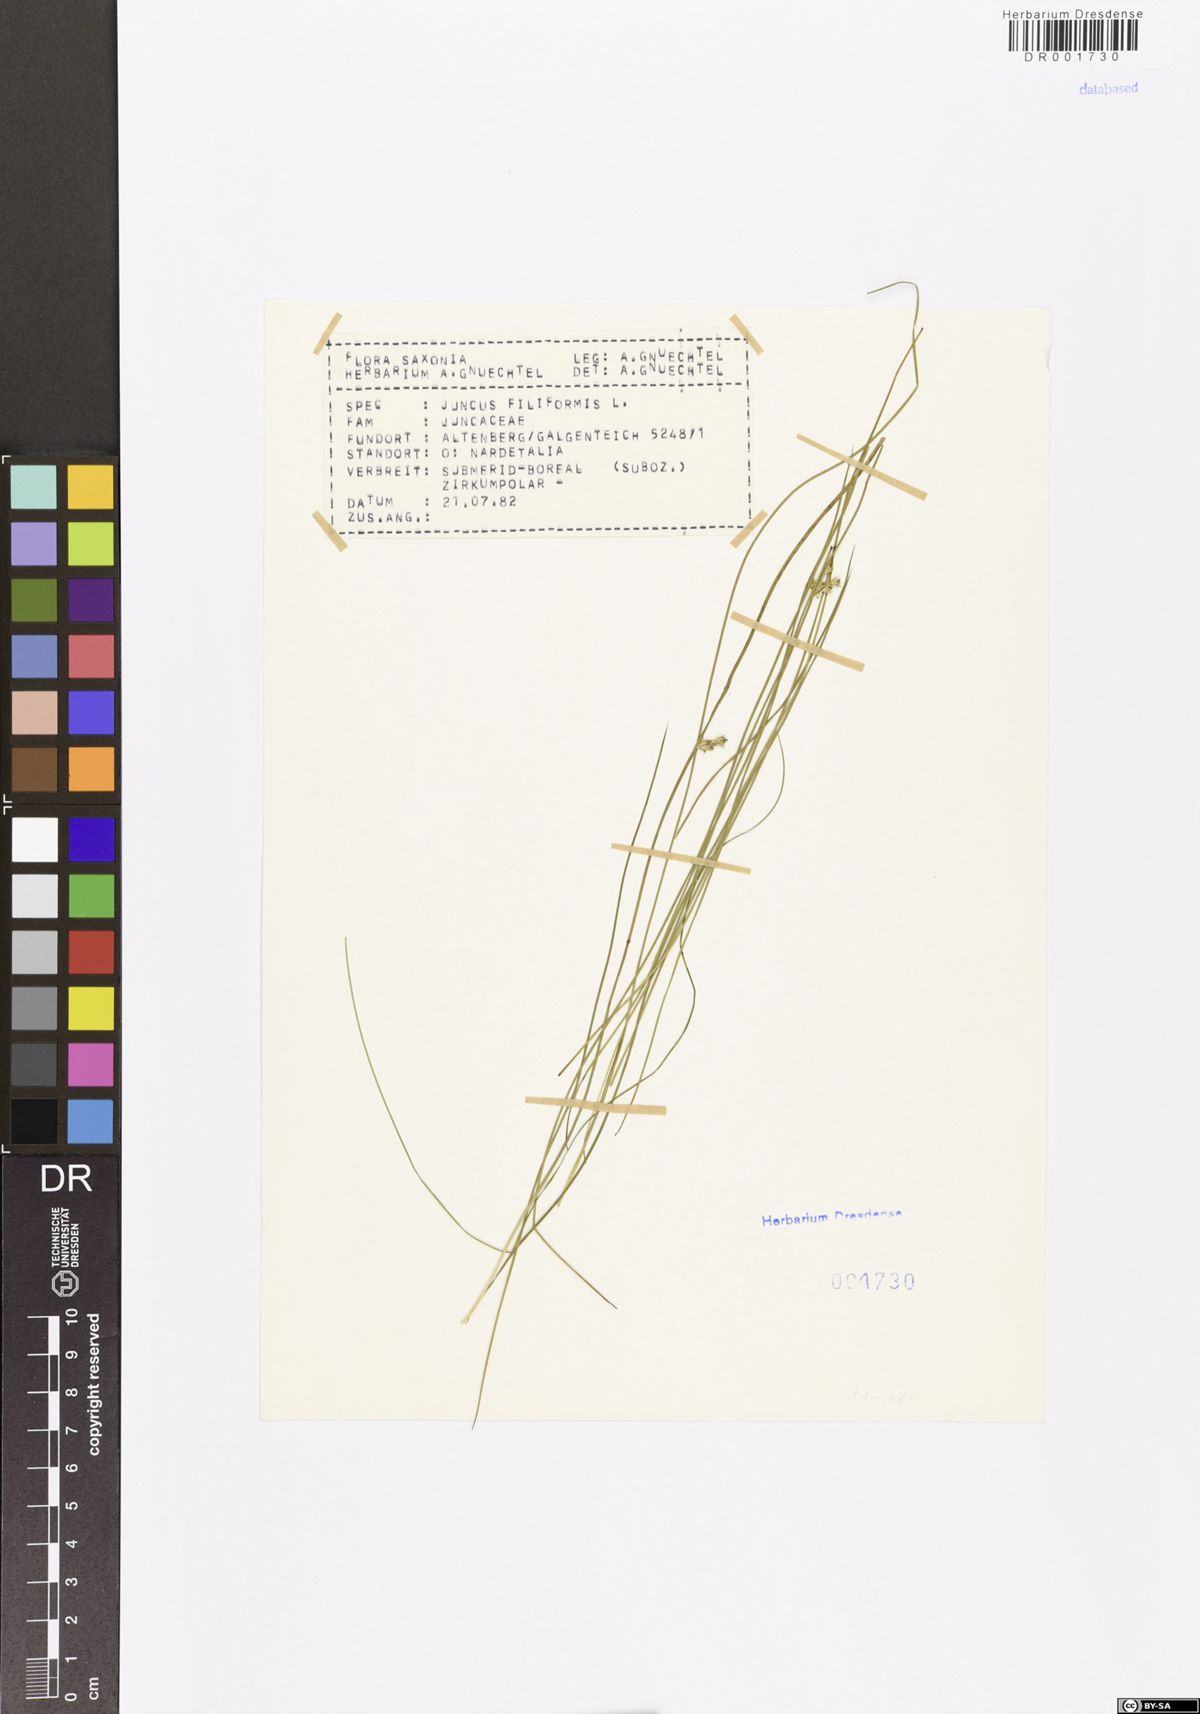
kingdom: Plantae
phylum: Tracheophyta
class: Liliopsida
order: Poales
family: Juncaceae
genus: Juncus
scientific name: Juncus filiformis
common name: Thread rush
